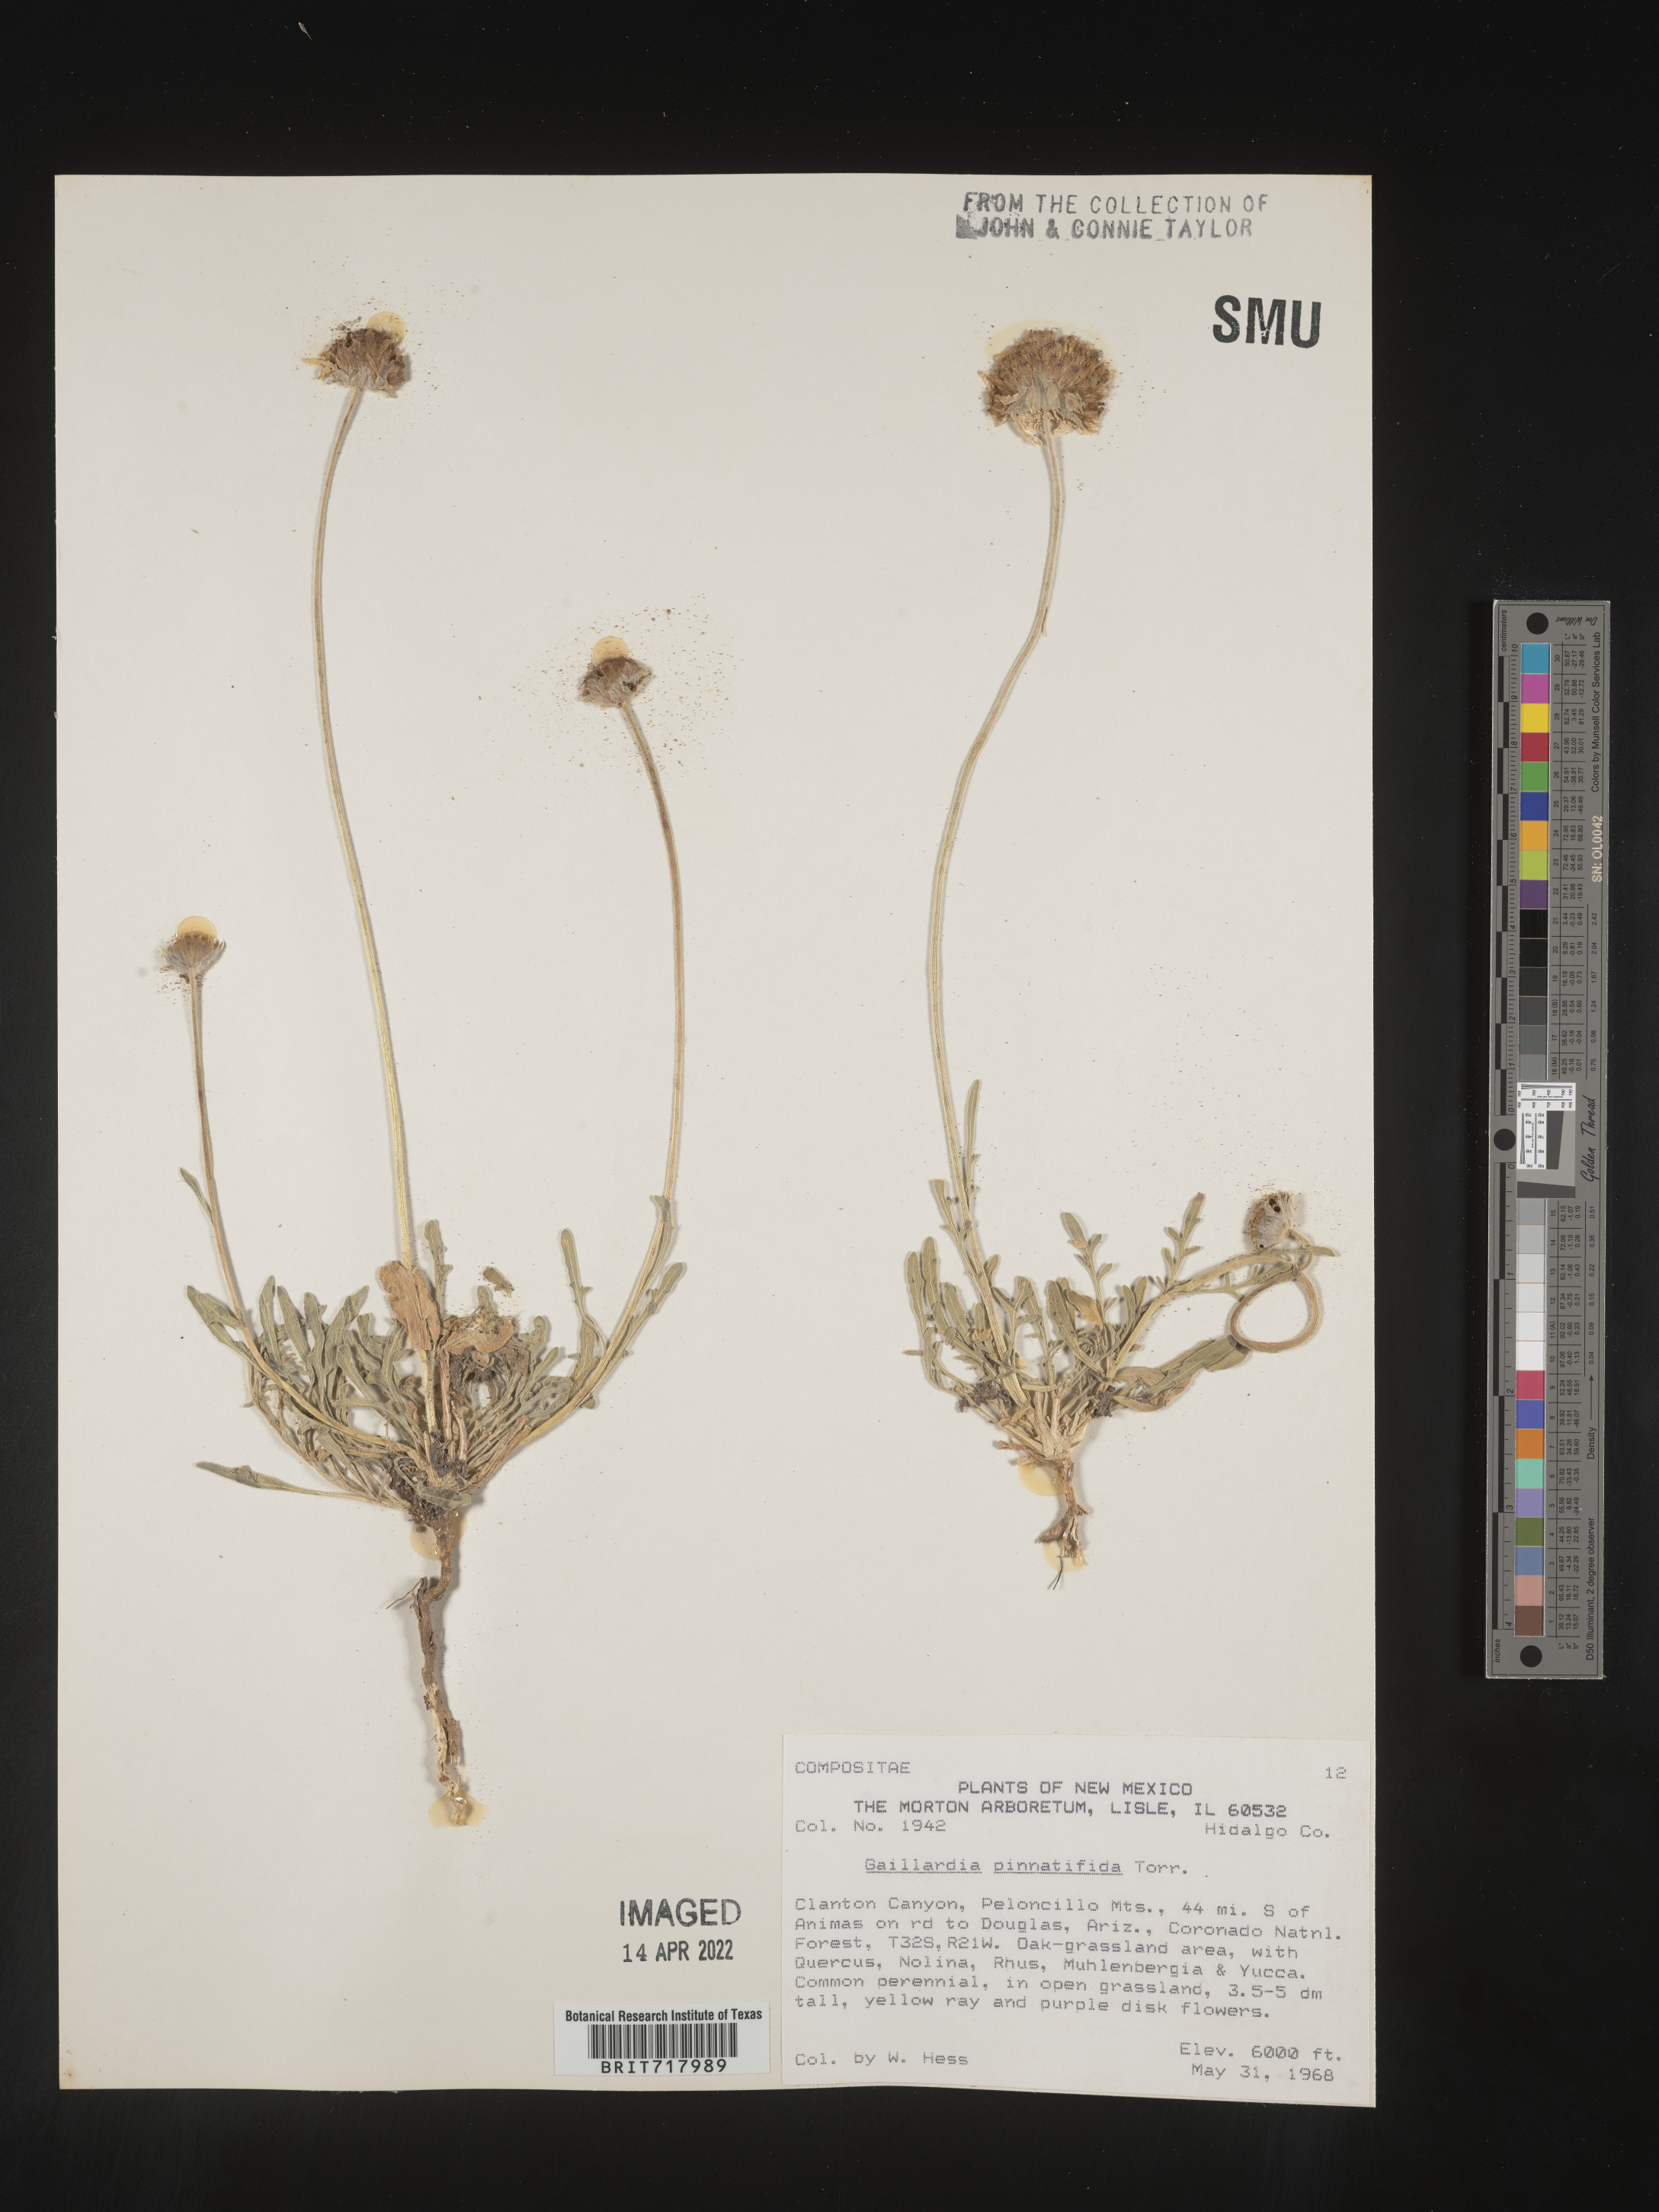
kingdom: Plantae
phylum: Tracheophyta
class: Magnoliopsida
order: Asterales
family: Asteraceae
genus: Gaillardia
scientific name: Gaillardia pinnatifida
